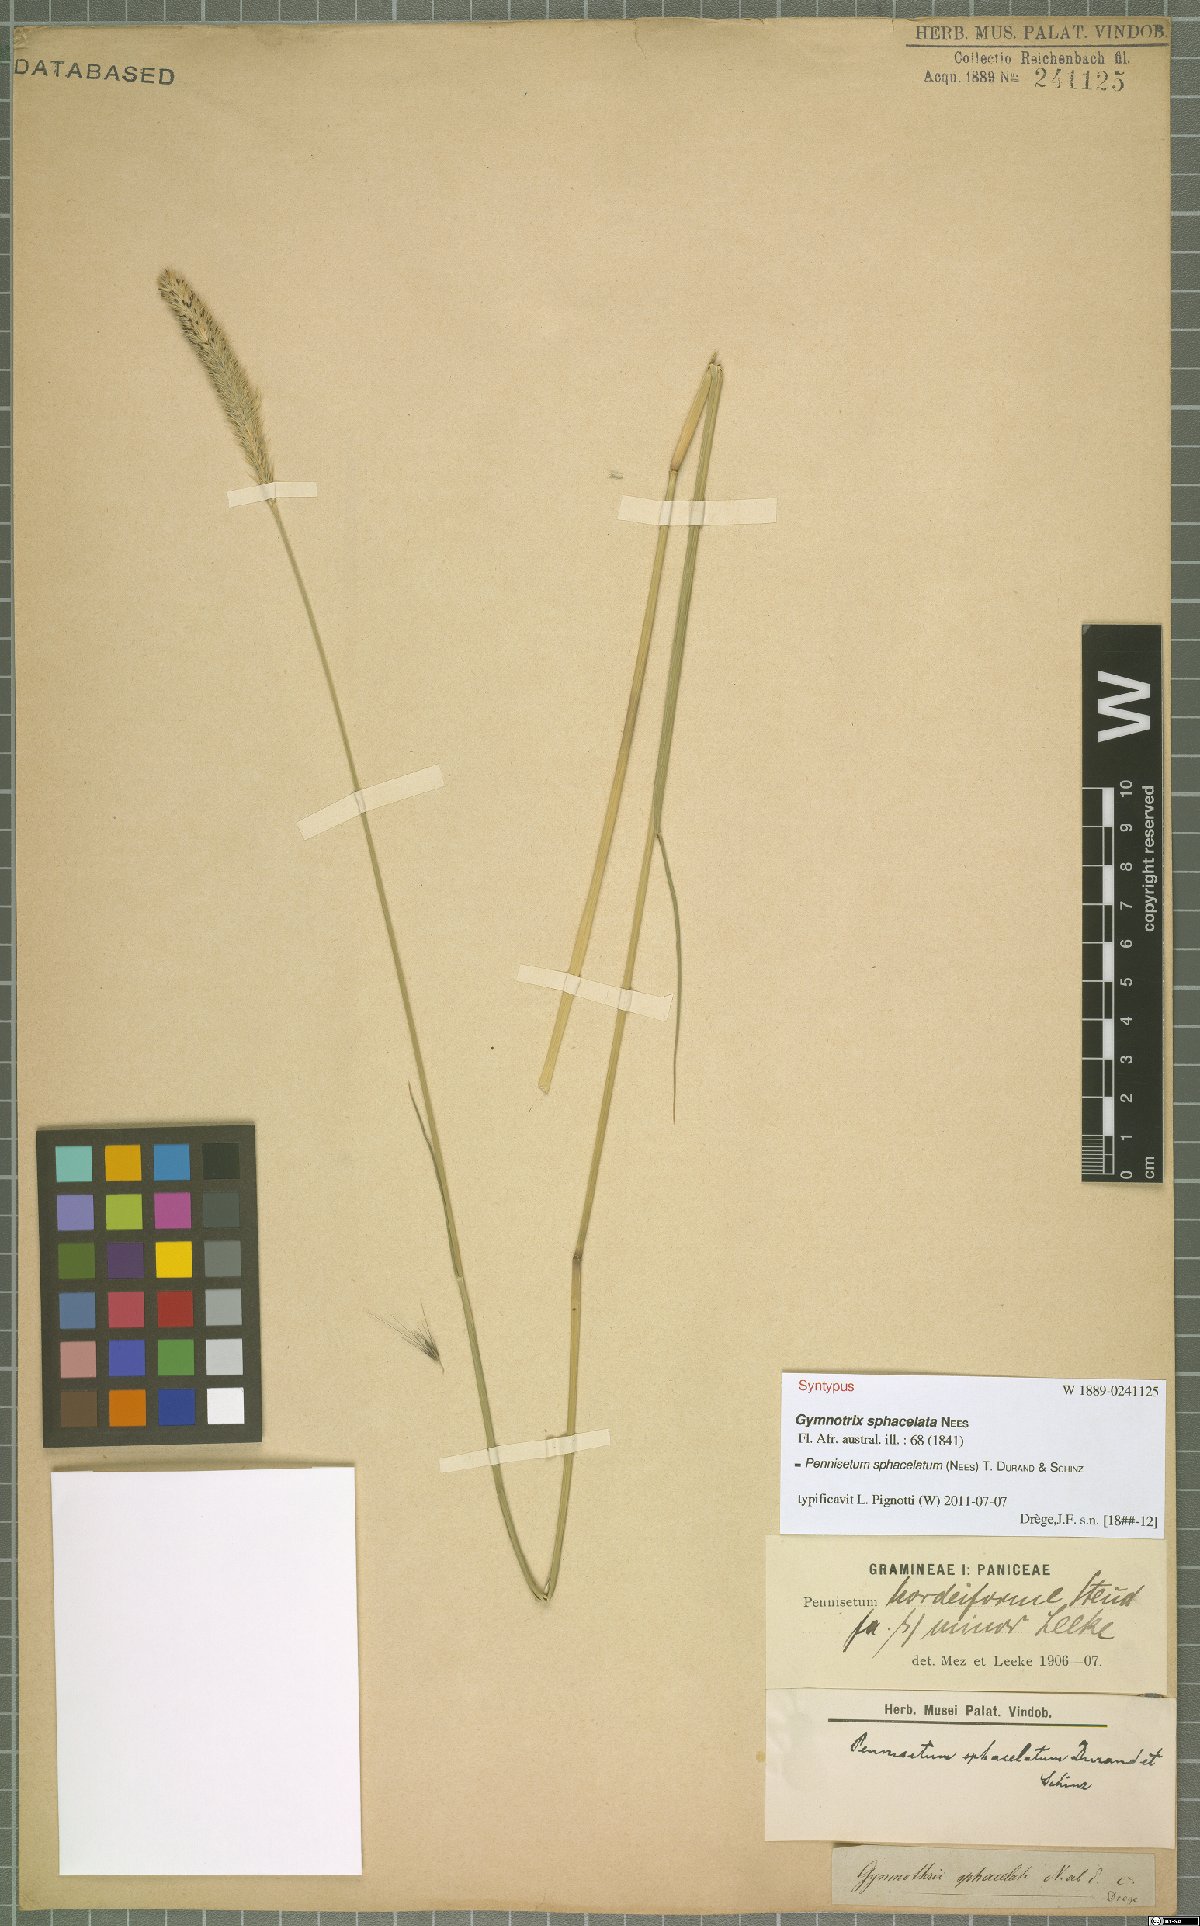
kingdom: Plantae
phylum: Tracheophyta
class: Liliopsida
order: Poales
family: Poaceae
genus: Cenchrus
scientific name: Cenchrus sphacelatus
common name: Bulgras
